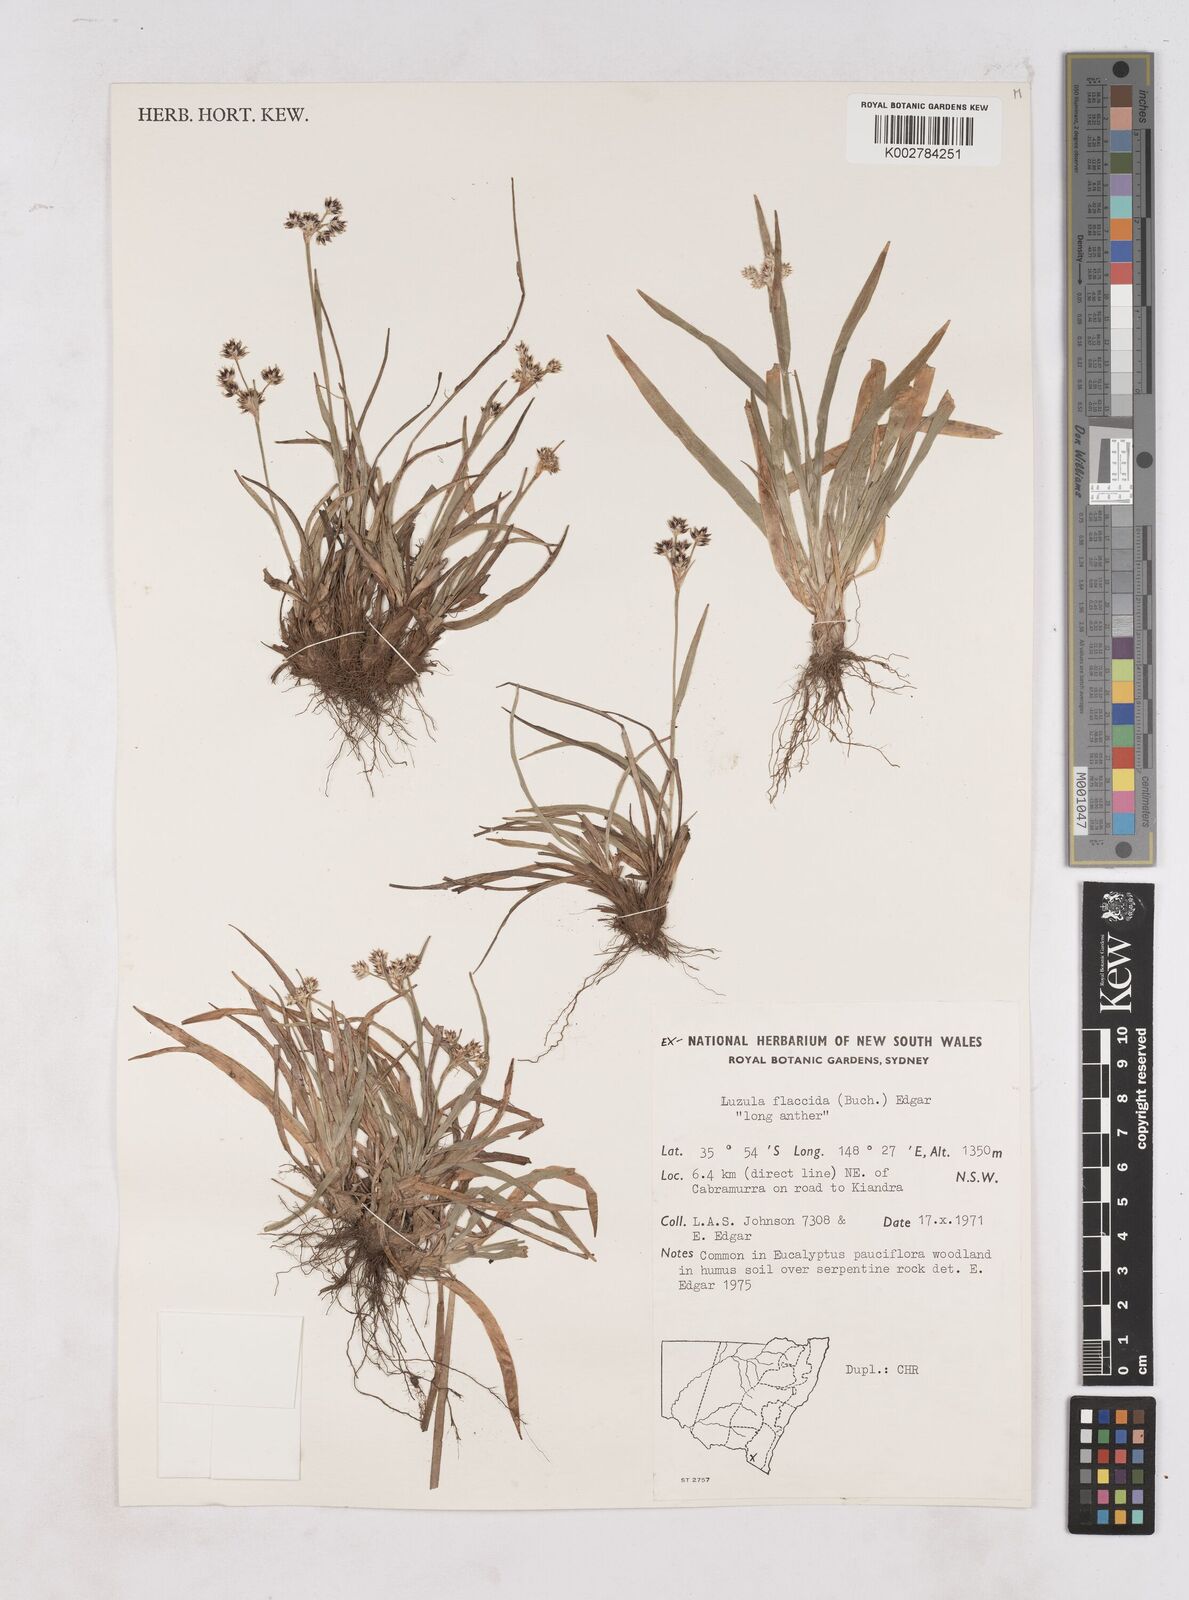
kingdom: Plantae
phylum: Tracheophyta
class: Liliopsida
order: Poales
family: Juncaceae
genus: Luzula
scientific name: Luzula flaccida
